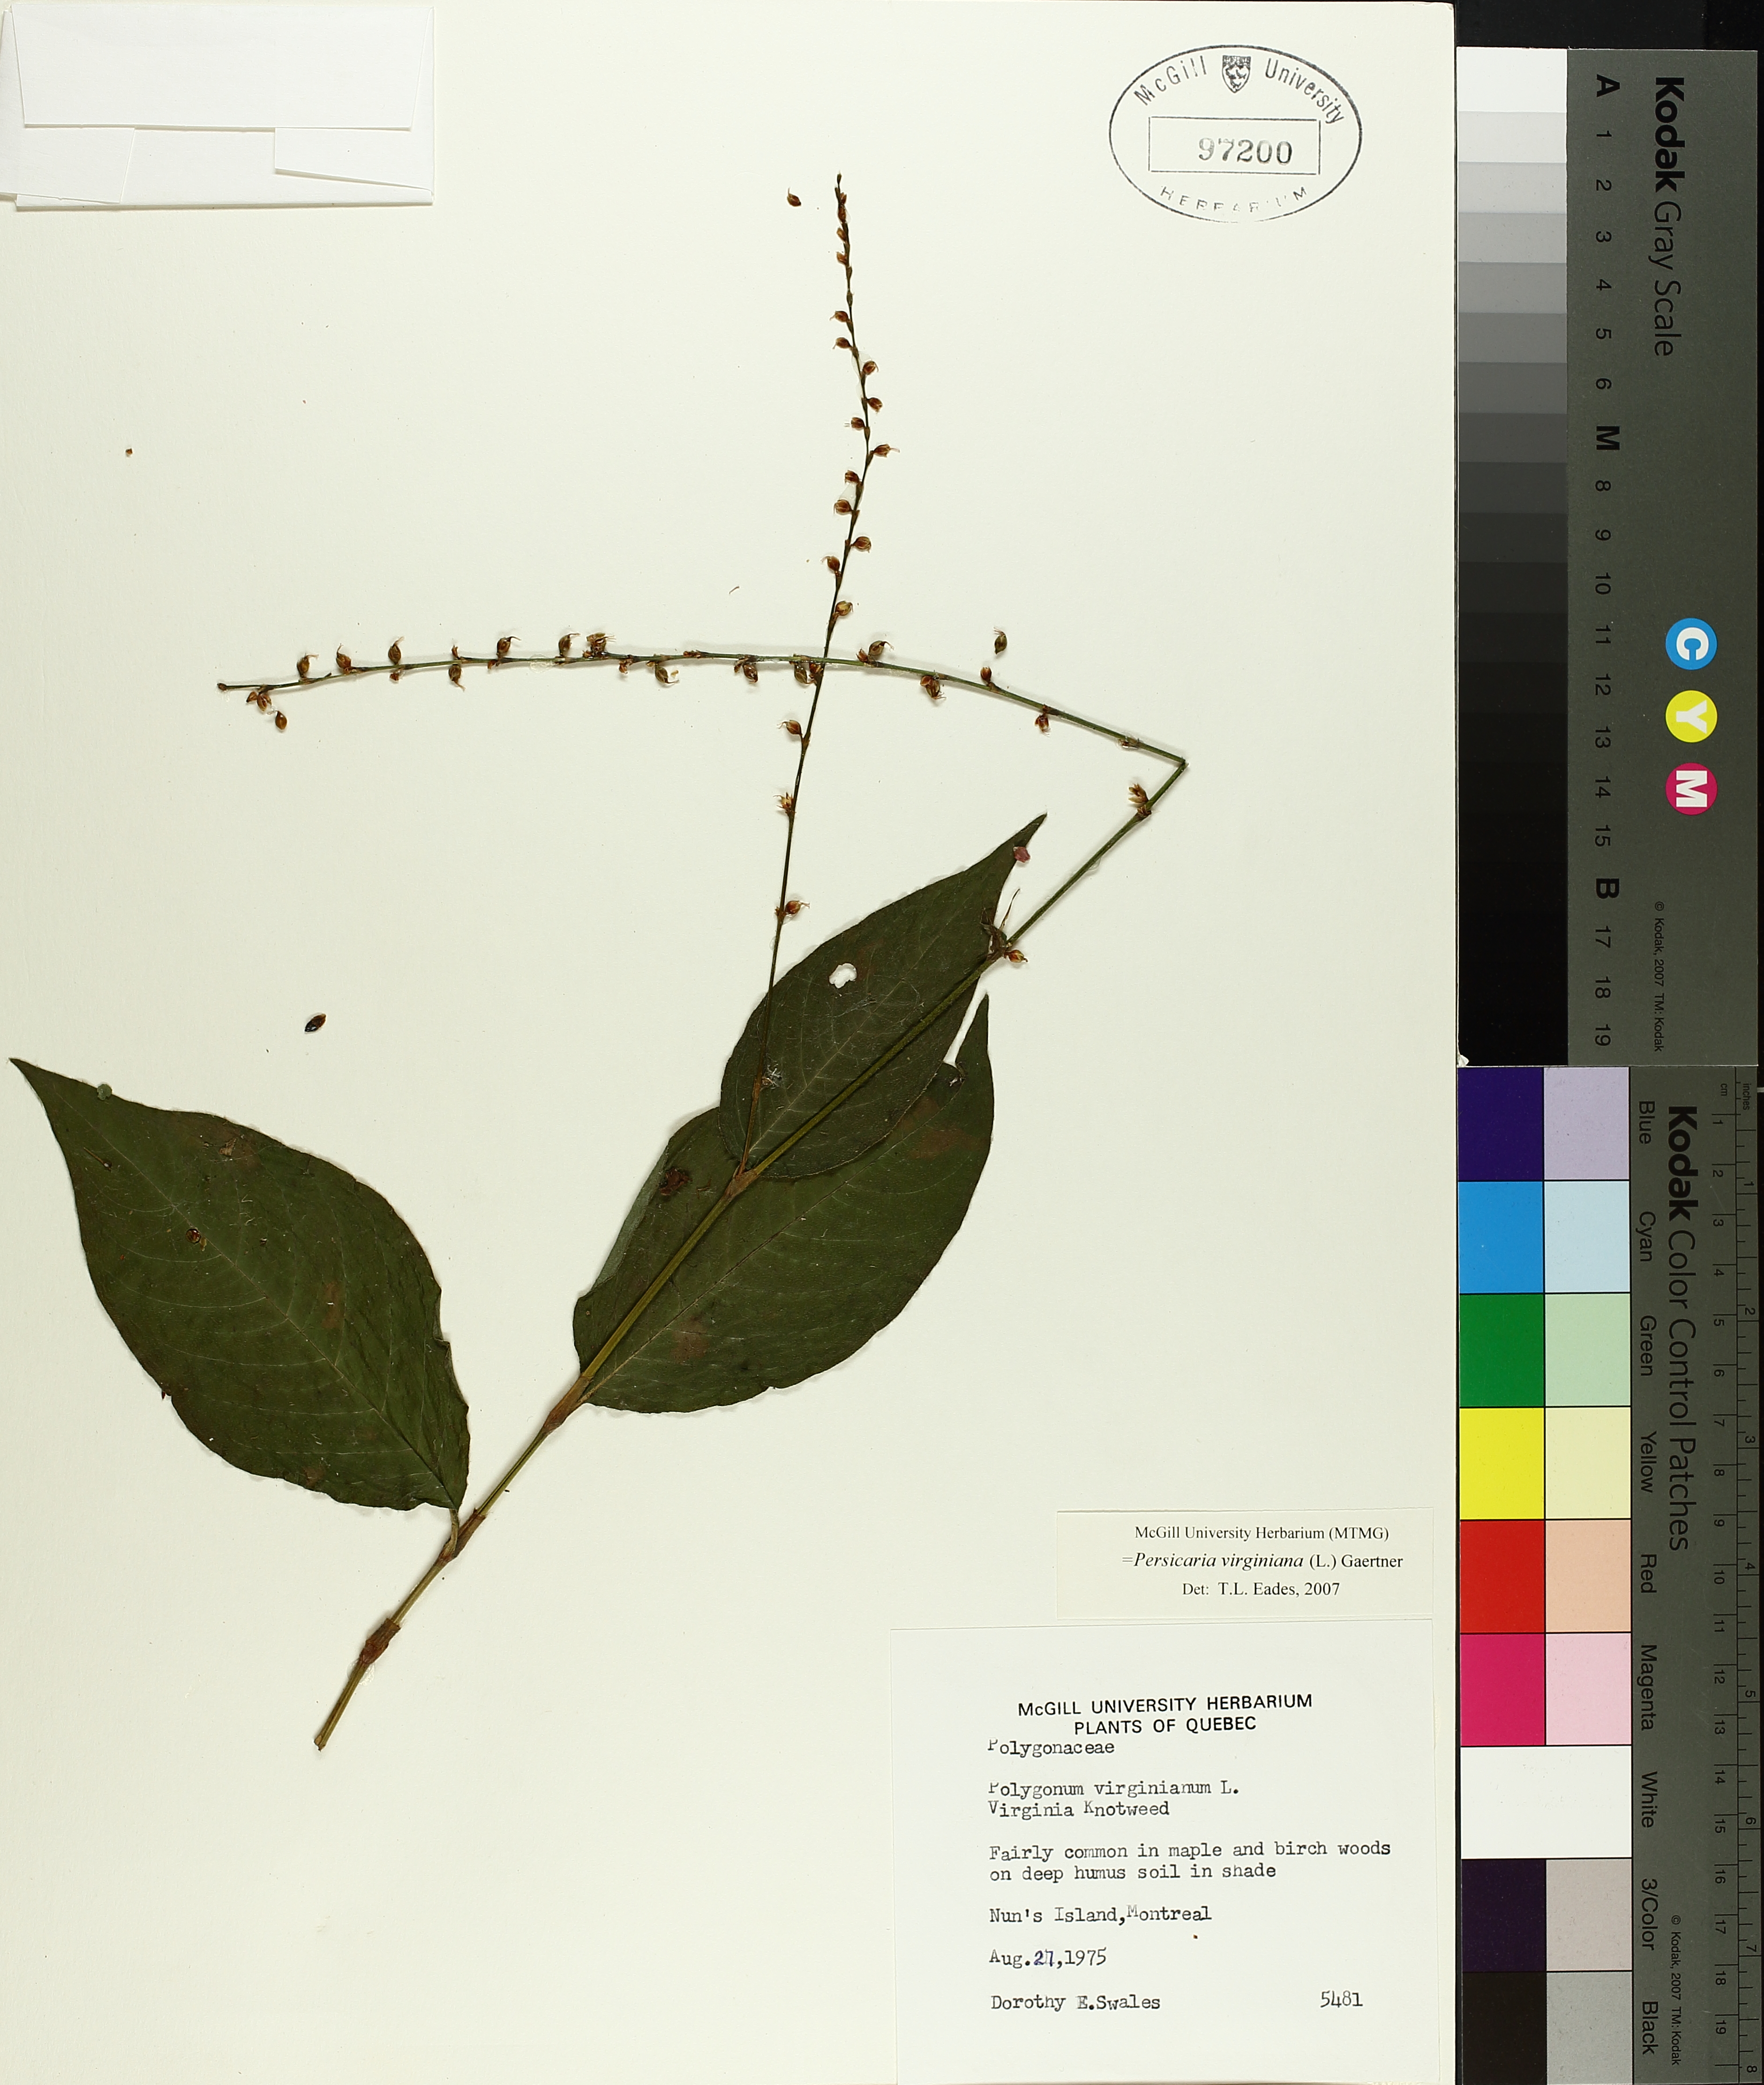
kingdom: Plantae
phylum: Tracheophyta
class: Magnoliopsida
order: Caryophyllales
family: Polygonaceae
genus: Persicaria
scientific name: Persicaria virginiana
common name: Jumpseed
